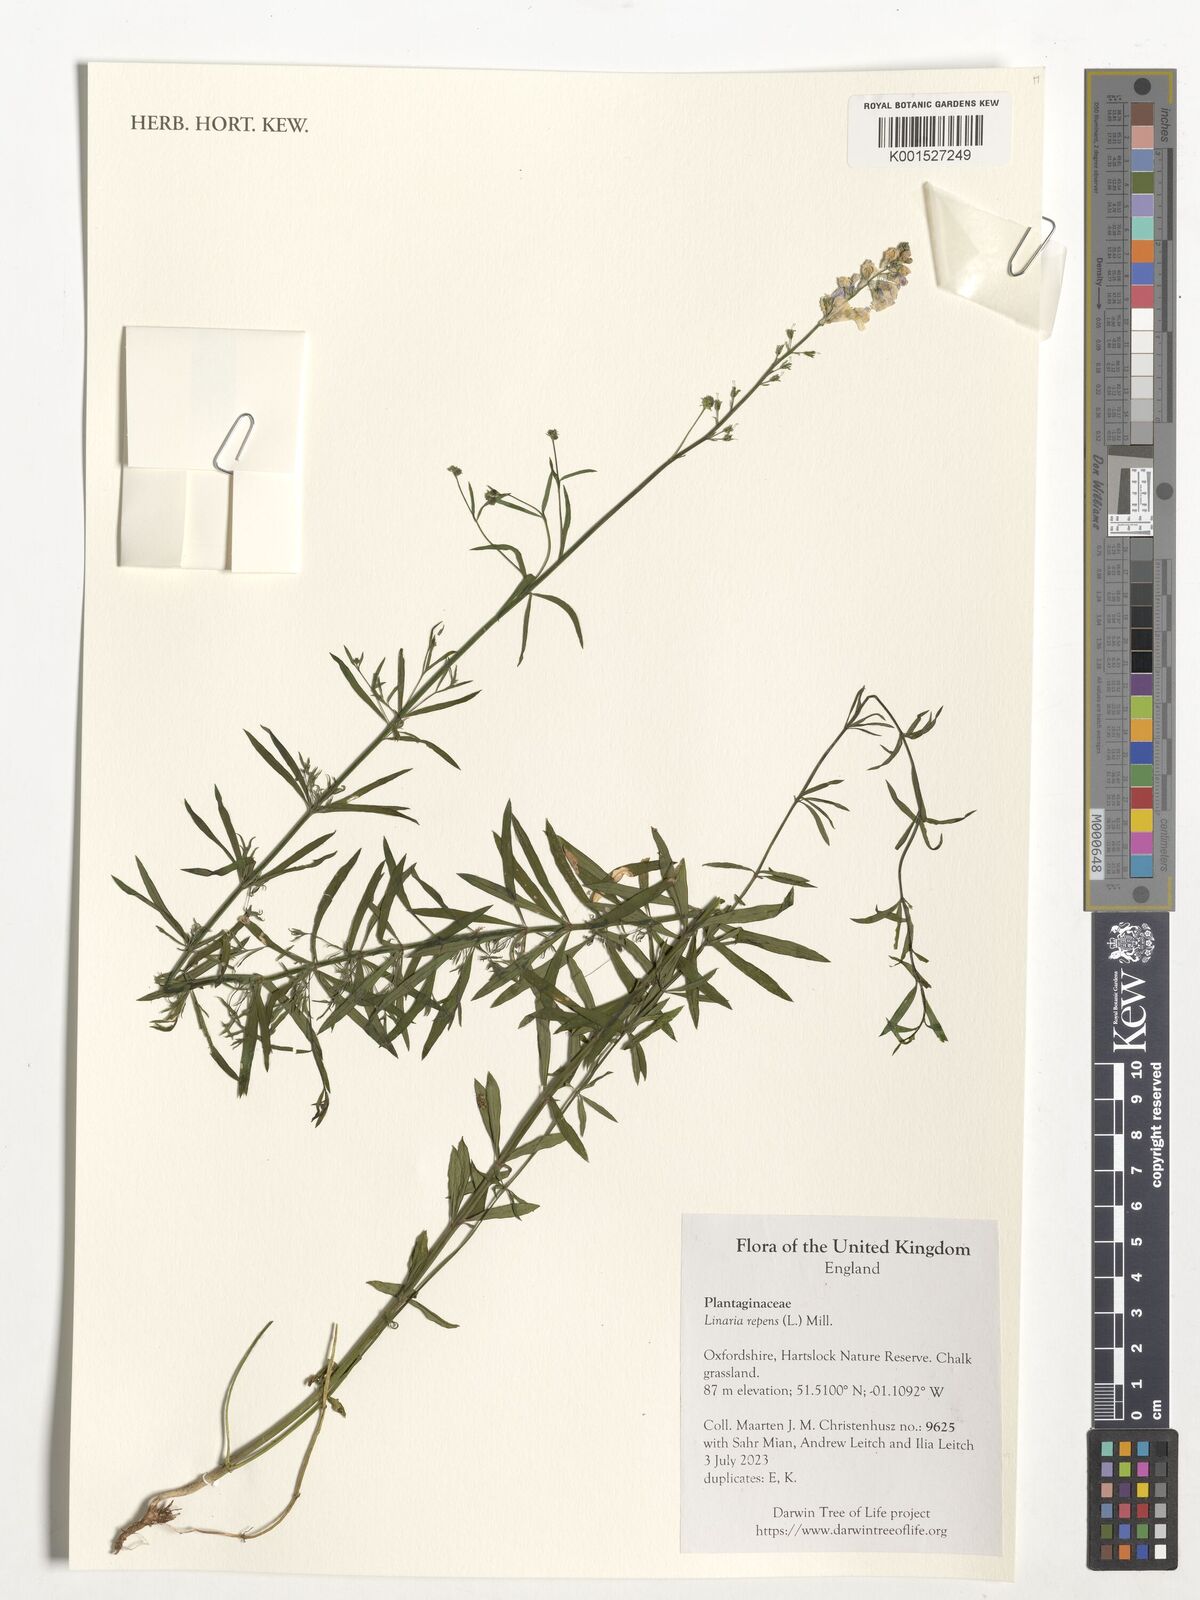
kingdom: Plantae
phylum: Tracheophyta
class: Magnoliopsida
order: Lamiales
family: Plantaginaceae
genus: Linaria
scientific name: Linaria repens
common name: Pale toadflax
